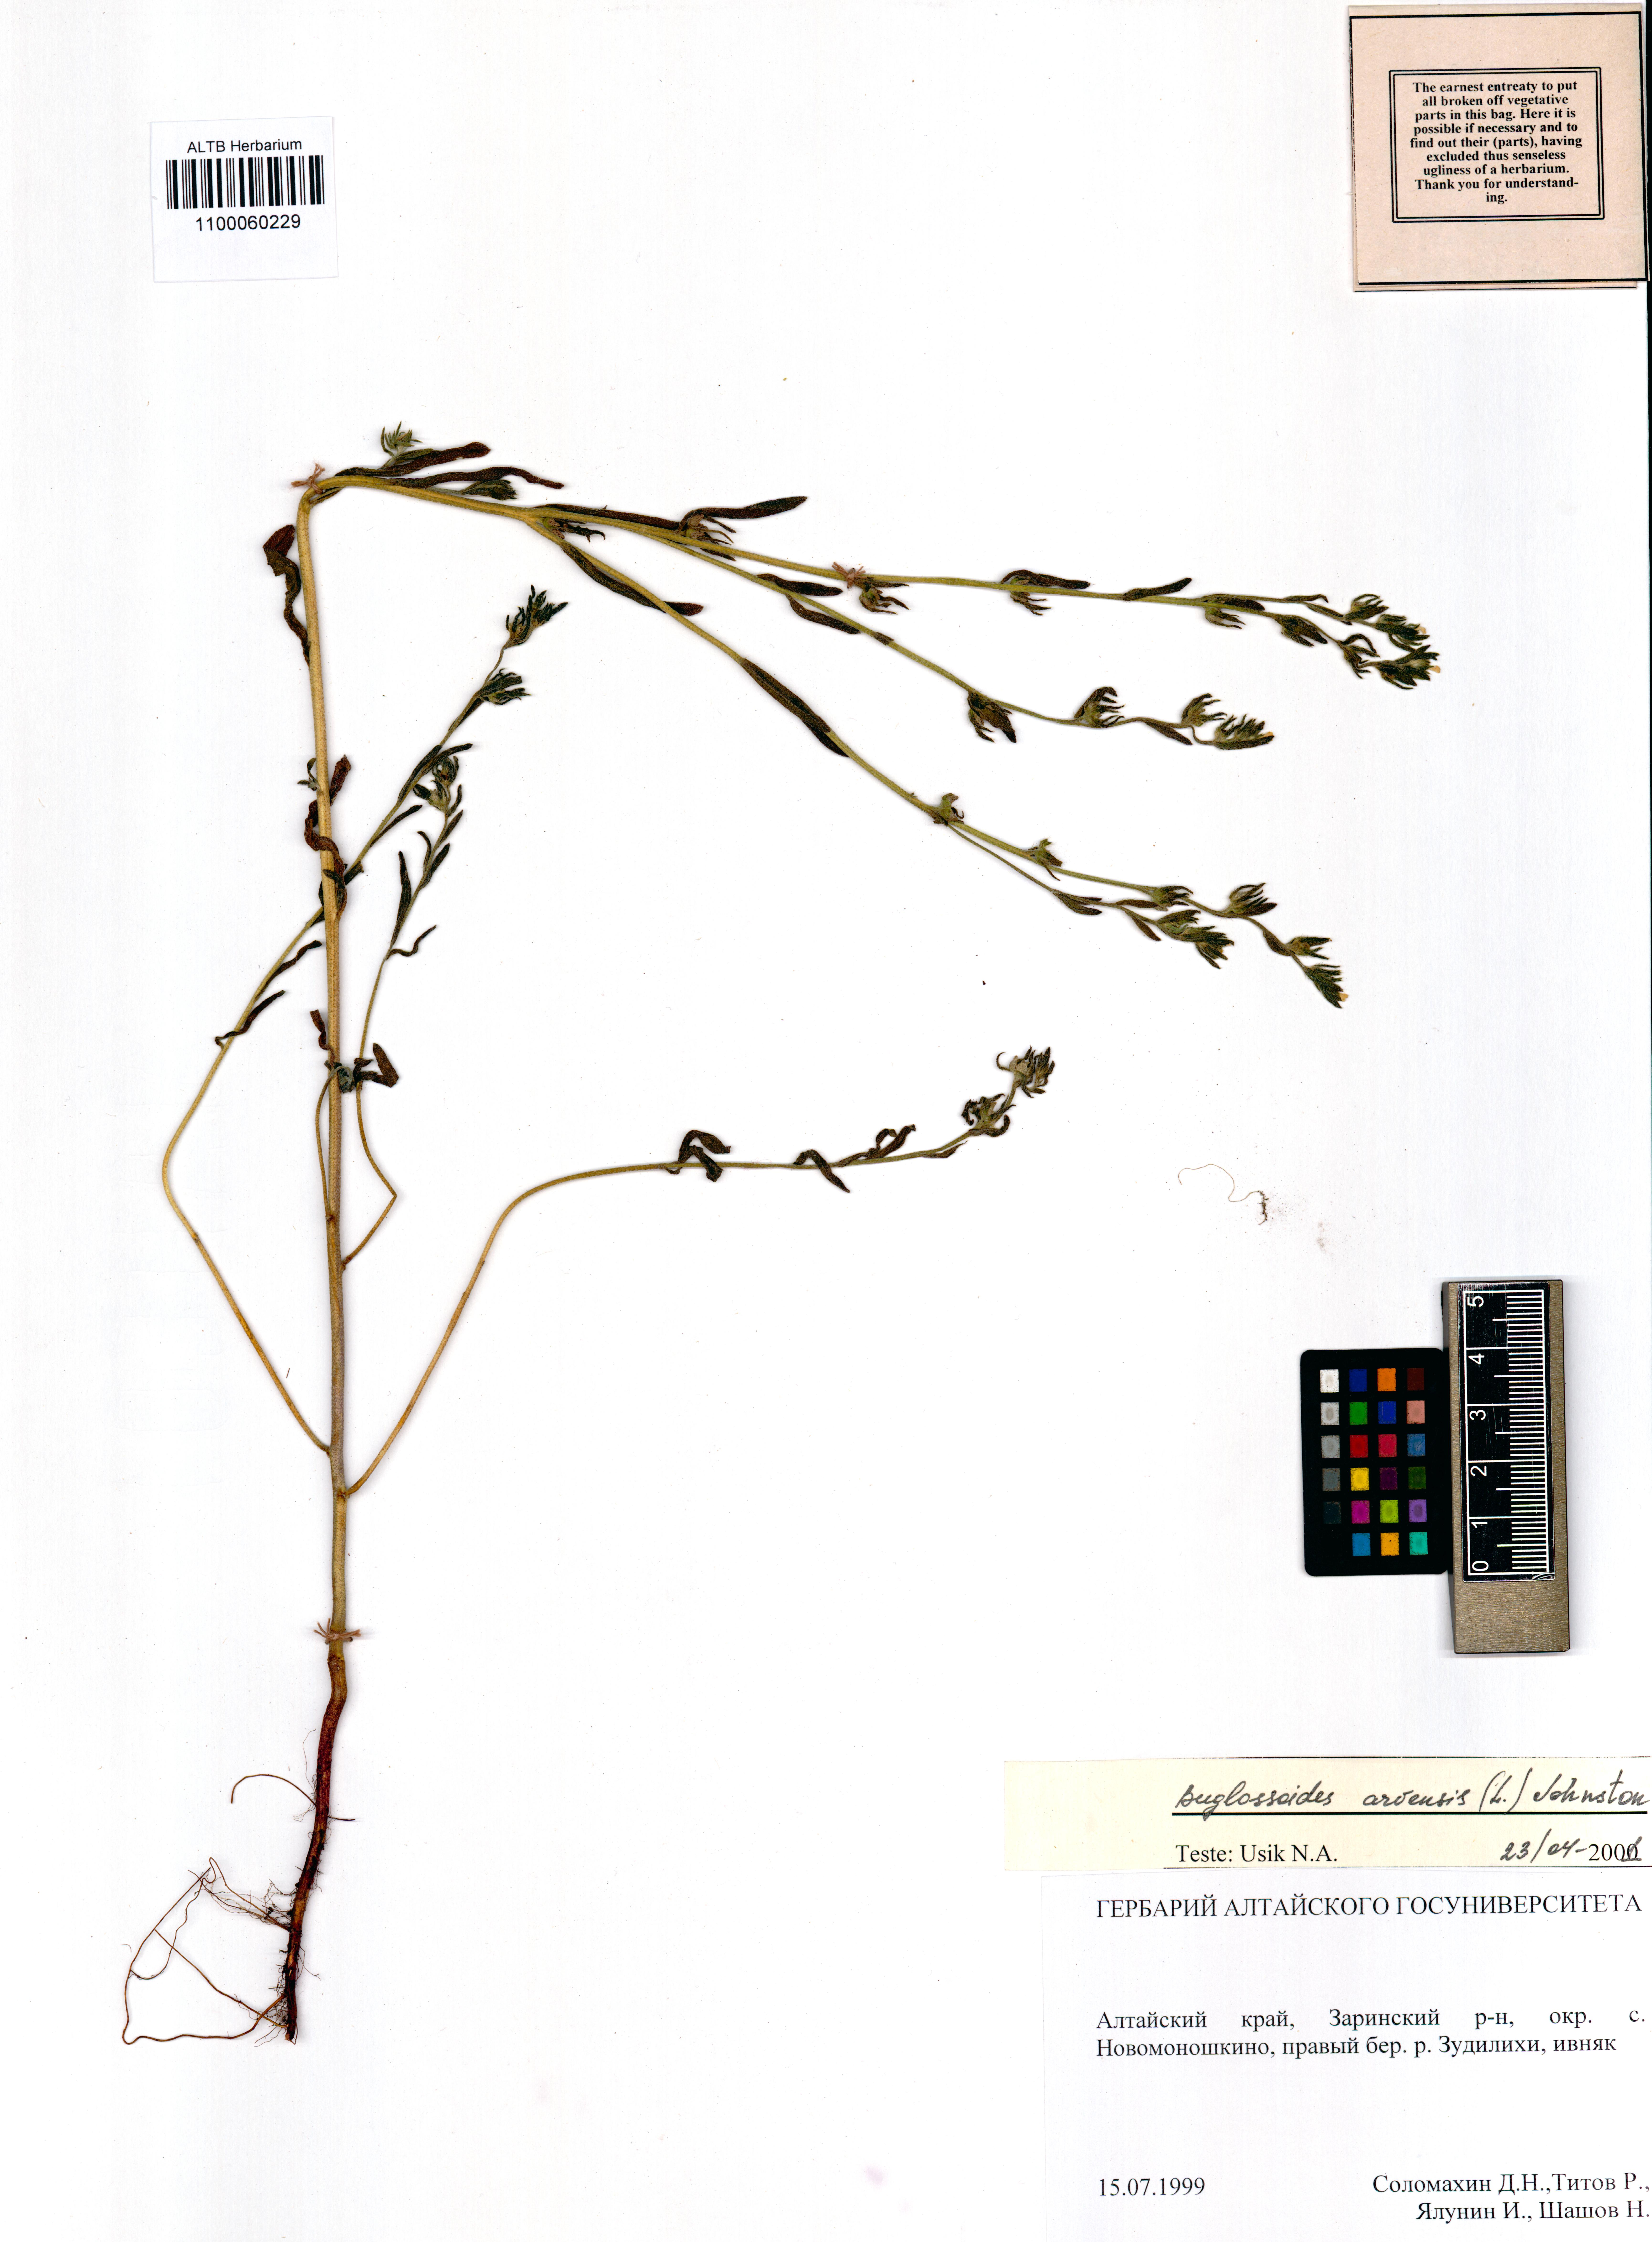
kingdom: Plantae
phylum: Tracheophyta
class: Magnoliopsida
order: Boraginales
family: Boraginaceae
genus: Buglossoides
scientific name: Buglossoides arvensis
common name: Corn gromwell
